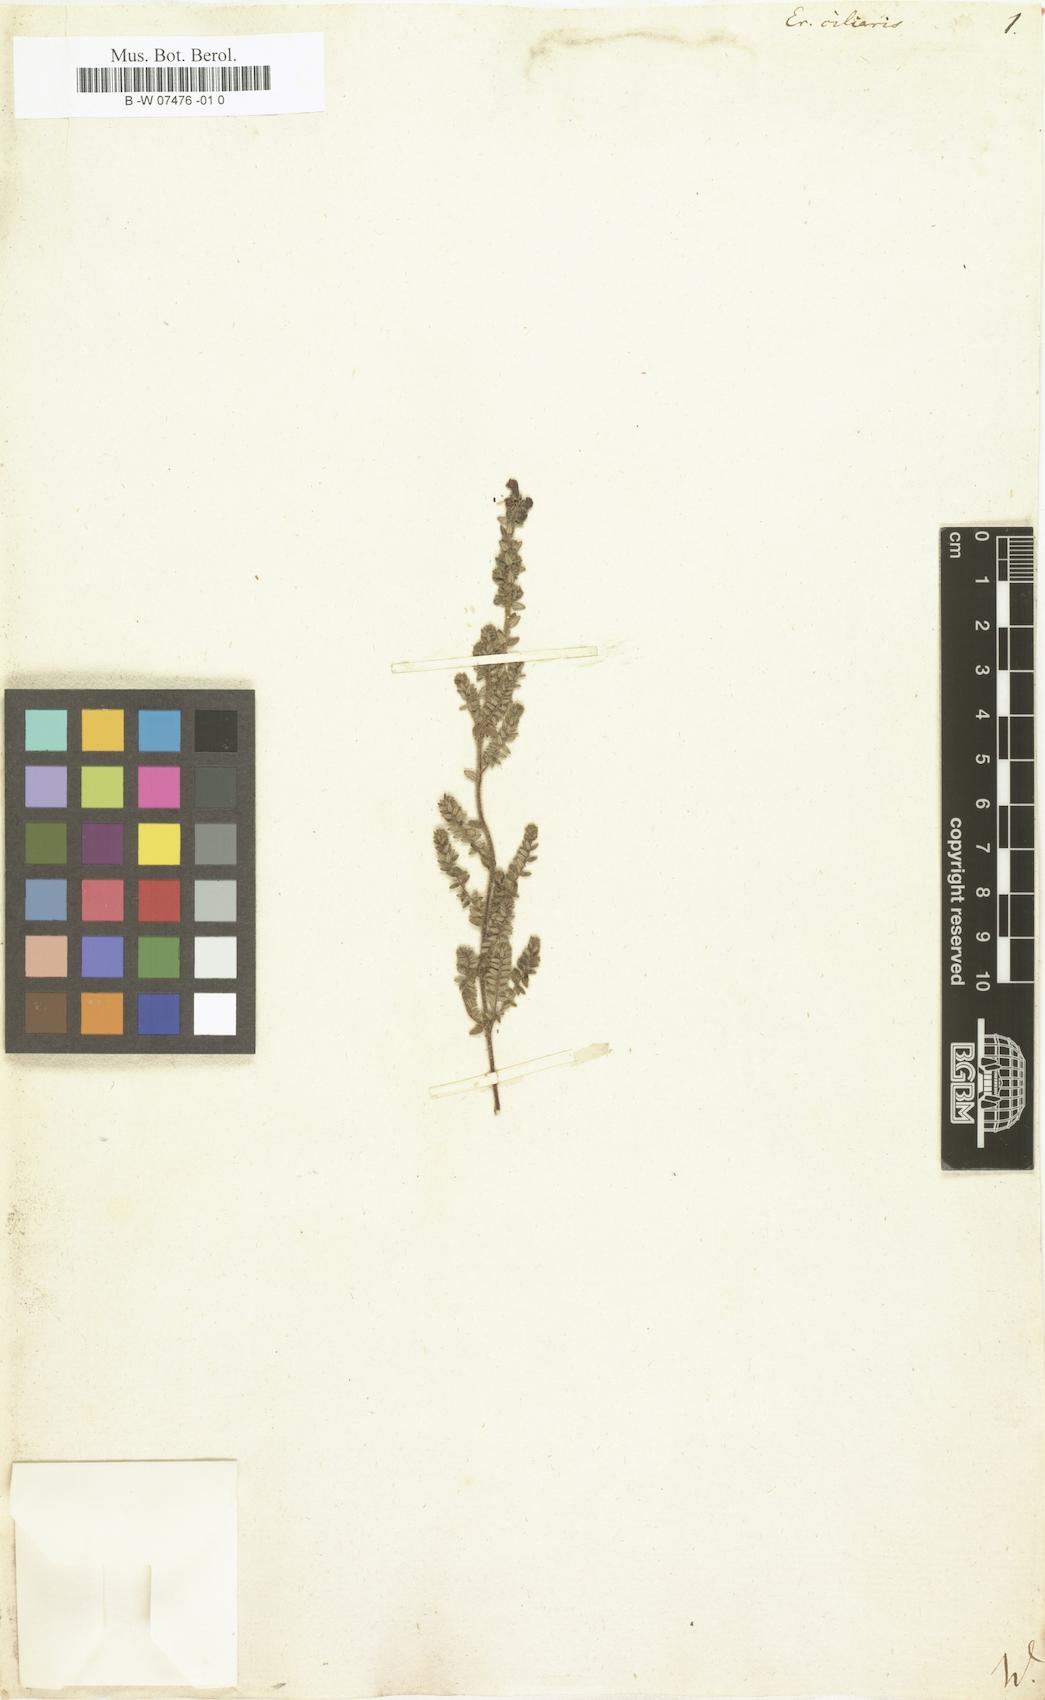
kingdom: Plantae
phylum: Tracheophyta
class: Magnoliopsida
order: Ericales
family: Ericaceae
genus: Erica
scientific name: Erica ciliaris
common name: Dorset heath
